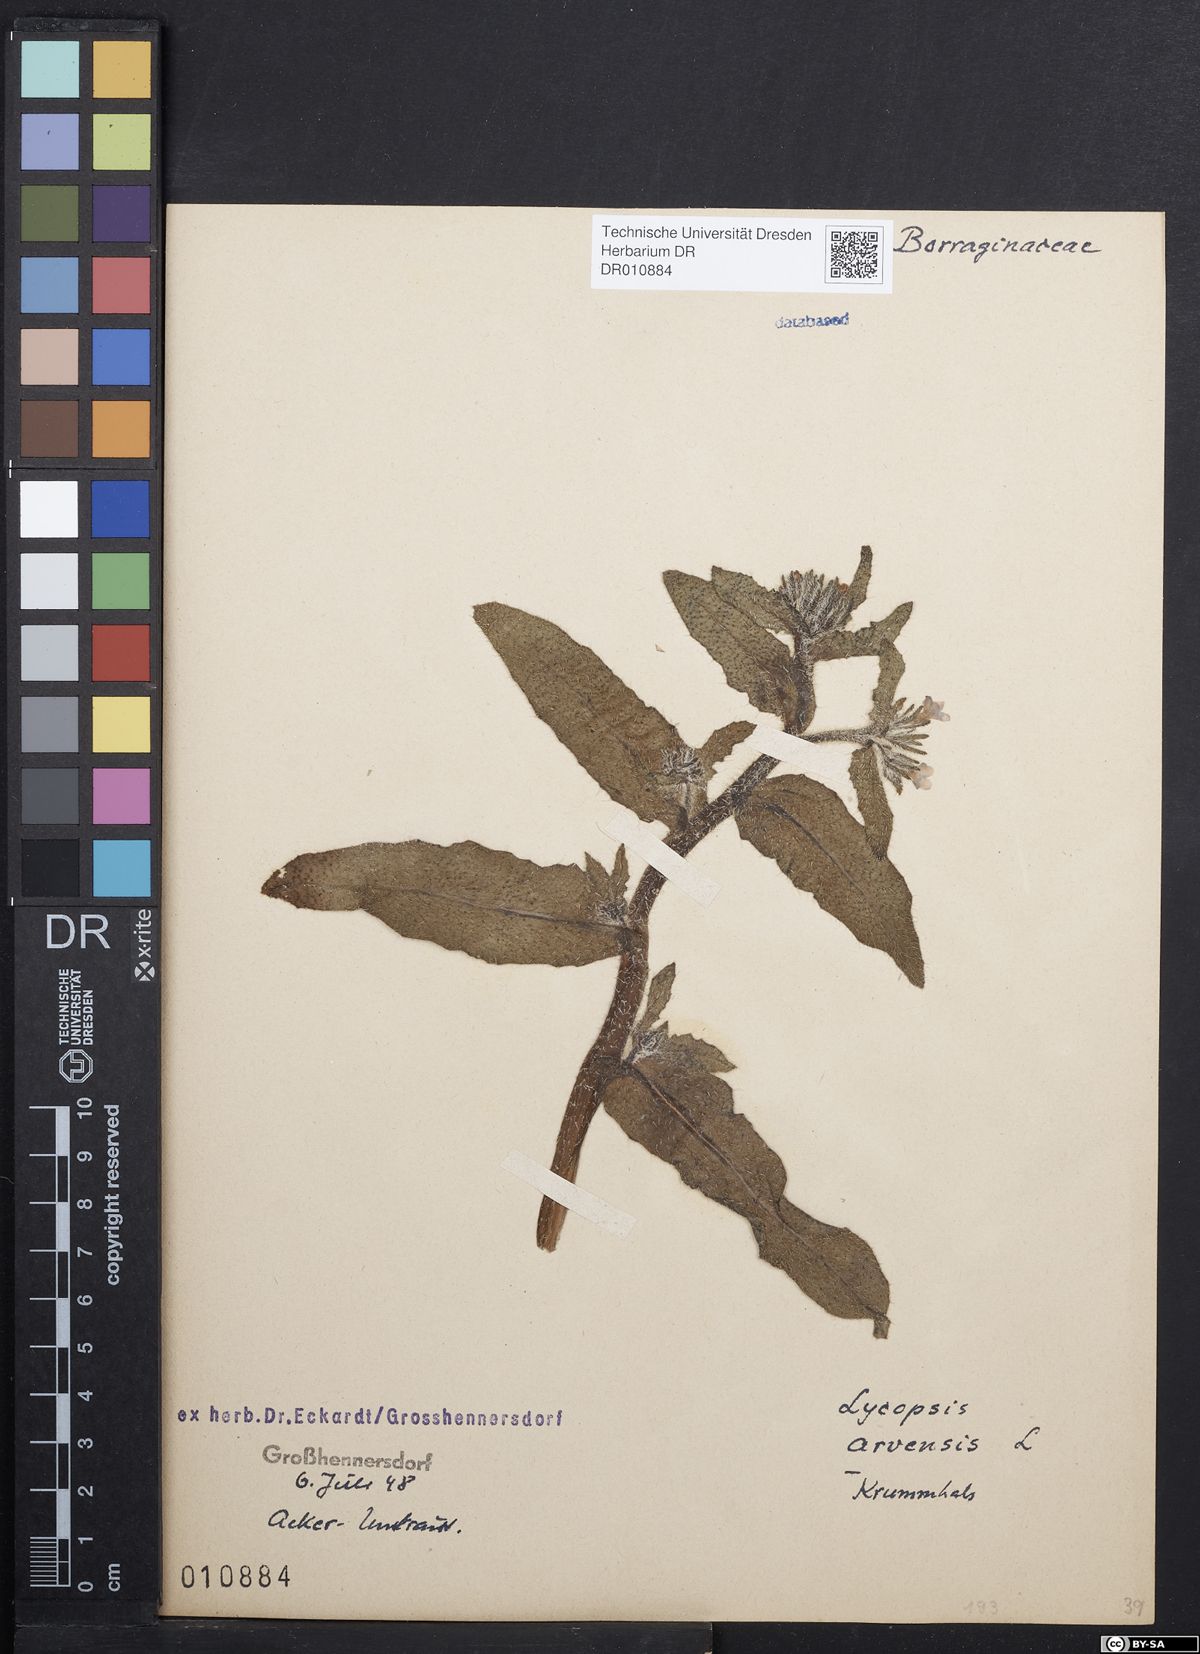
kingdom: Plantae
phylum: Tracheophyta
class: Magnoliopsida
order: Boraginales
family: Boraginaceae
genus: Lycopsis
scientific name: Lycopsis arvensis
